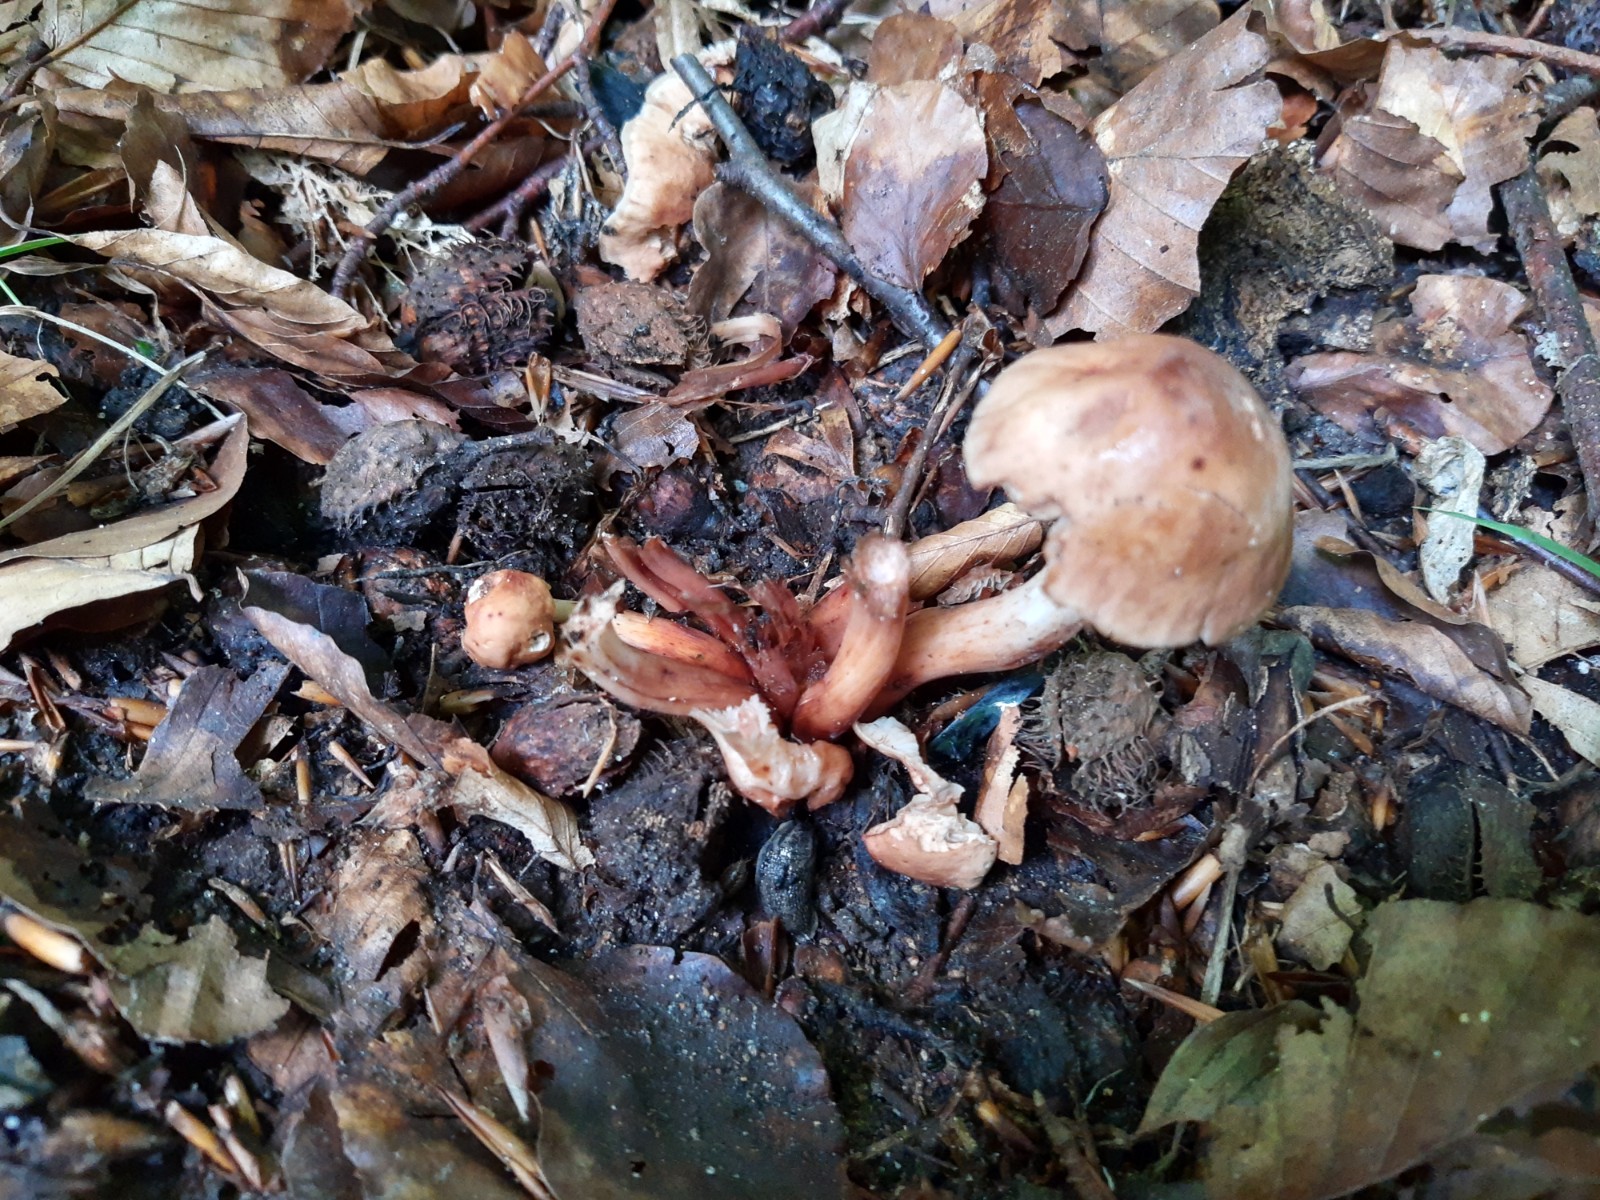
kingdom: Fungi
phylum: Basidiomycota
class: Agaricomycetes
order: Agaricales
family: Omphalotaceae
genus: Gymnopus
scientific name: Gymnopus fusipes
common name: tenstokket fladhat
